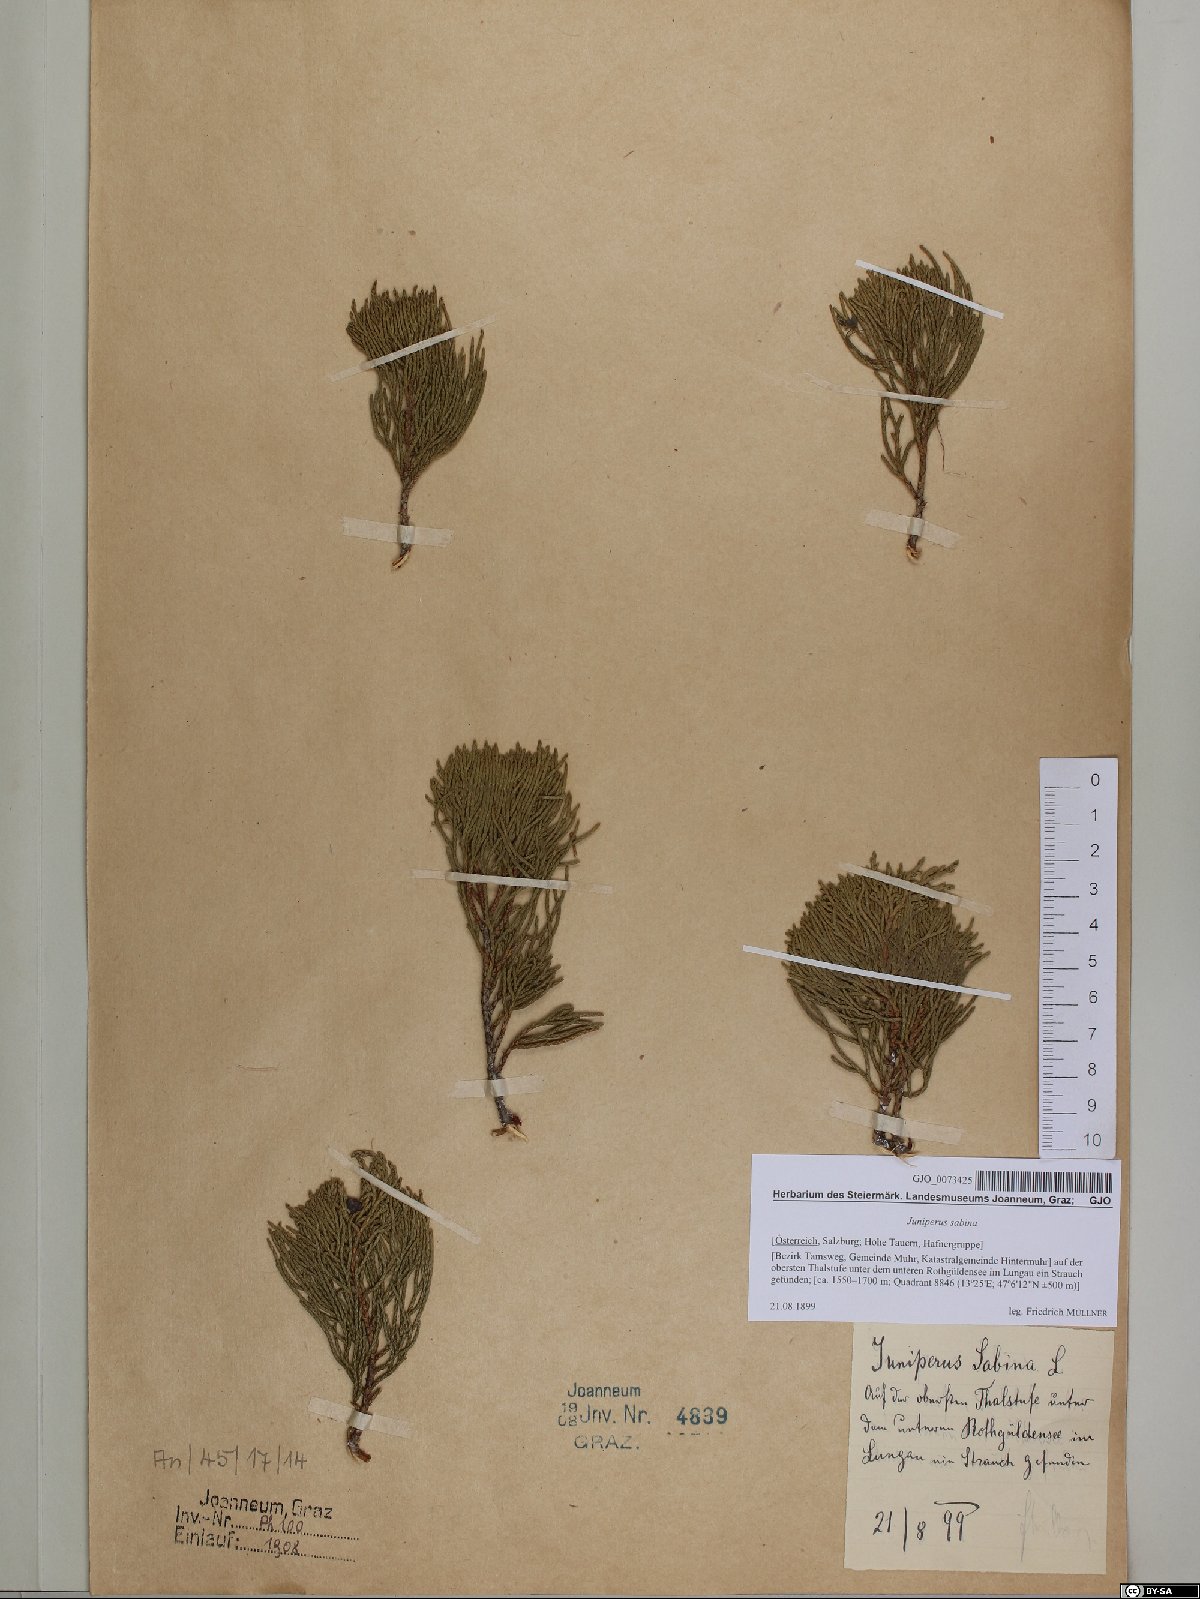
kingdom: Plantae
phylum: Tracheophyta
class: Pinopsida
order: Pinales
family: Cupressaceae
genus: Juniperus
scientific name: Juniperus sabina
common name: Savin
